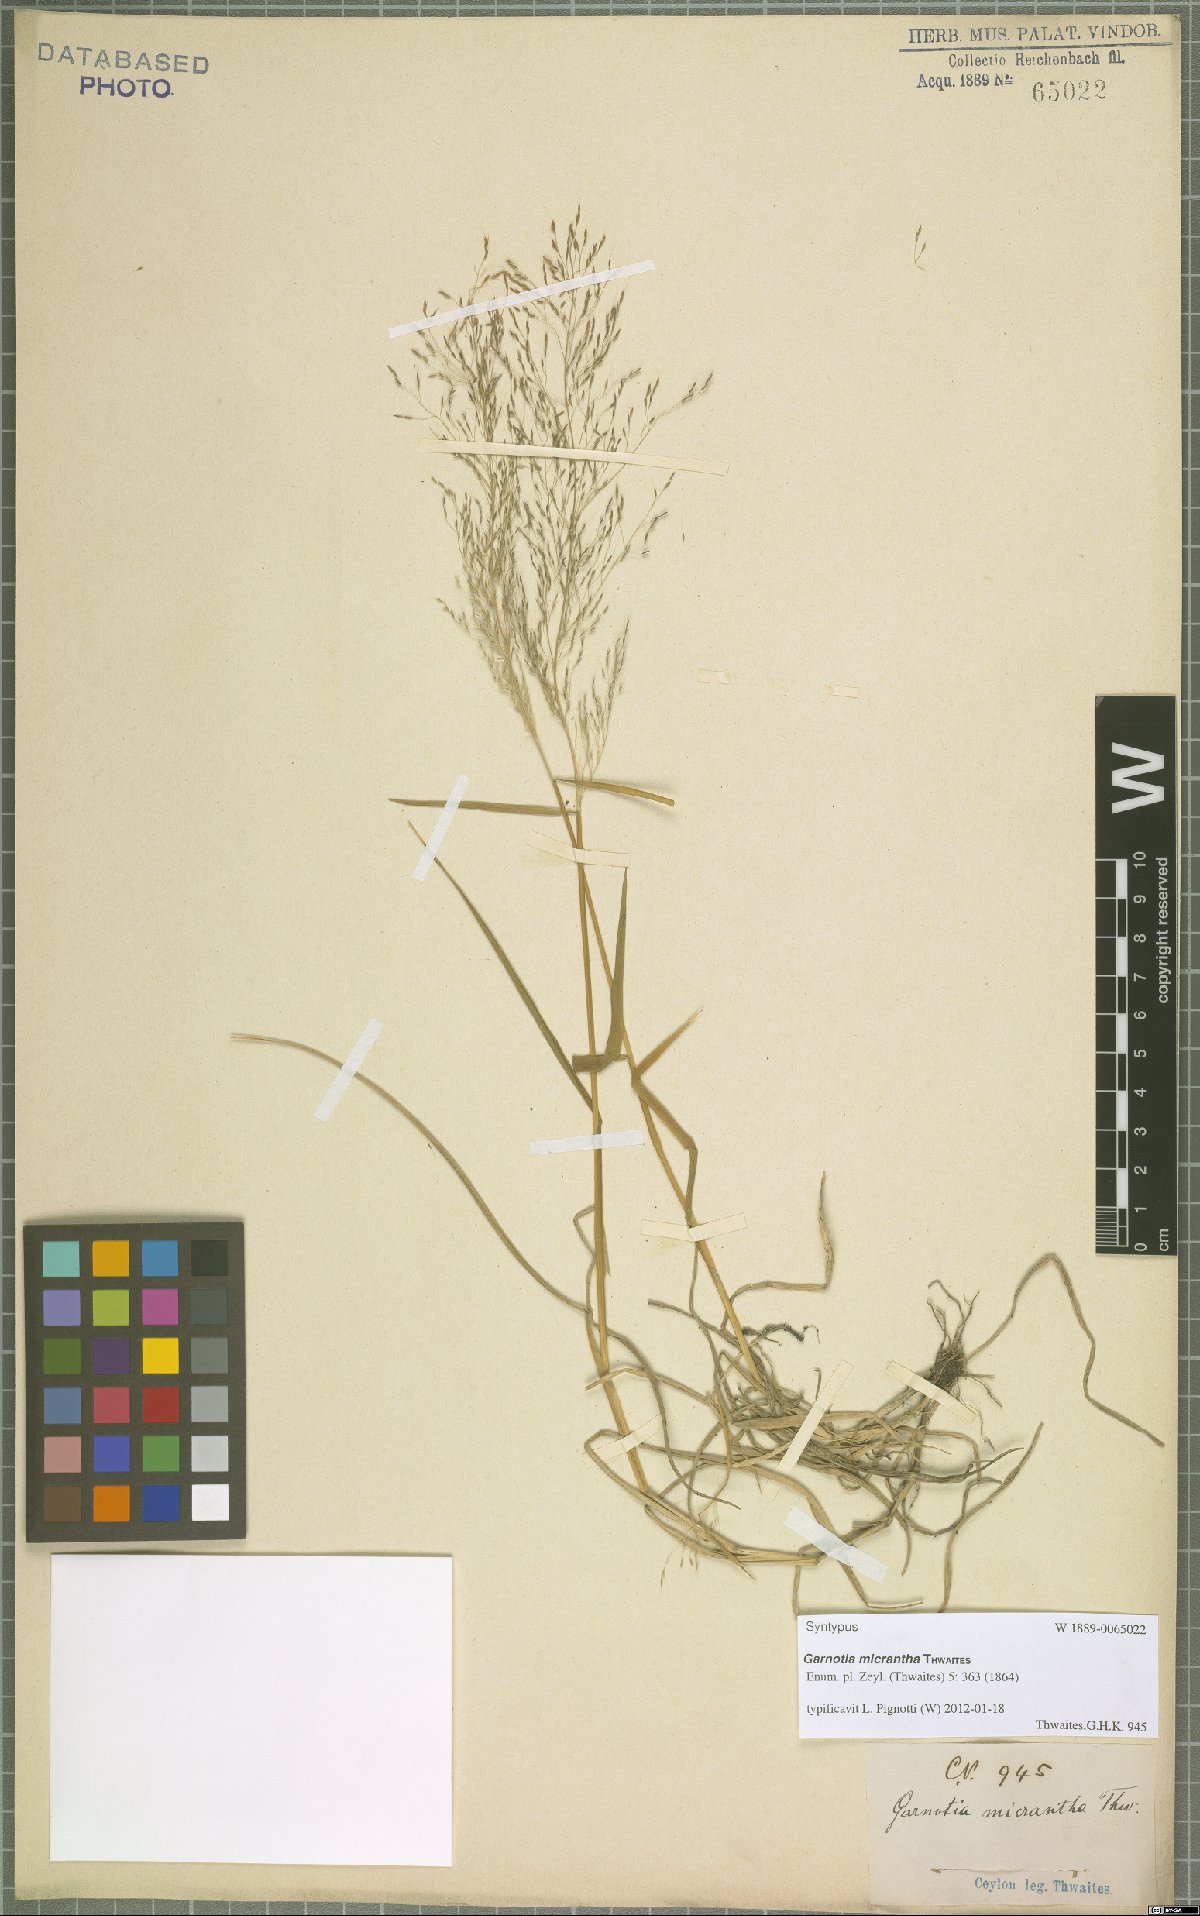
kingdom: Plantae
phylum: Tracheophyta
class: Liliopsida
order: Poales
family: Poaceae
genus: Garnotia
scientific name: Garnotia micrantha
